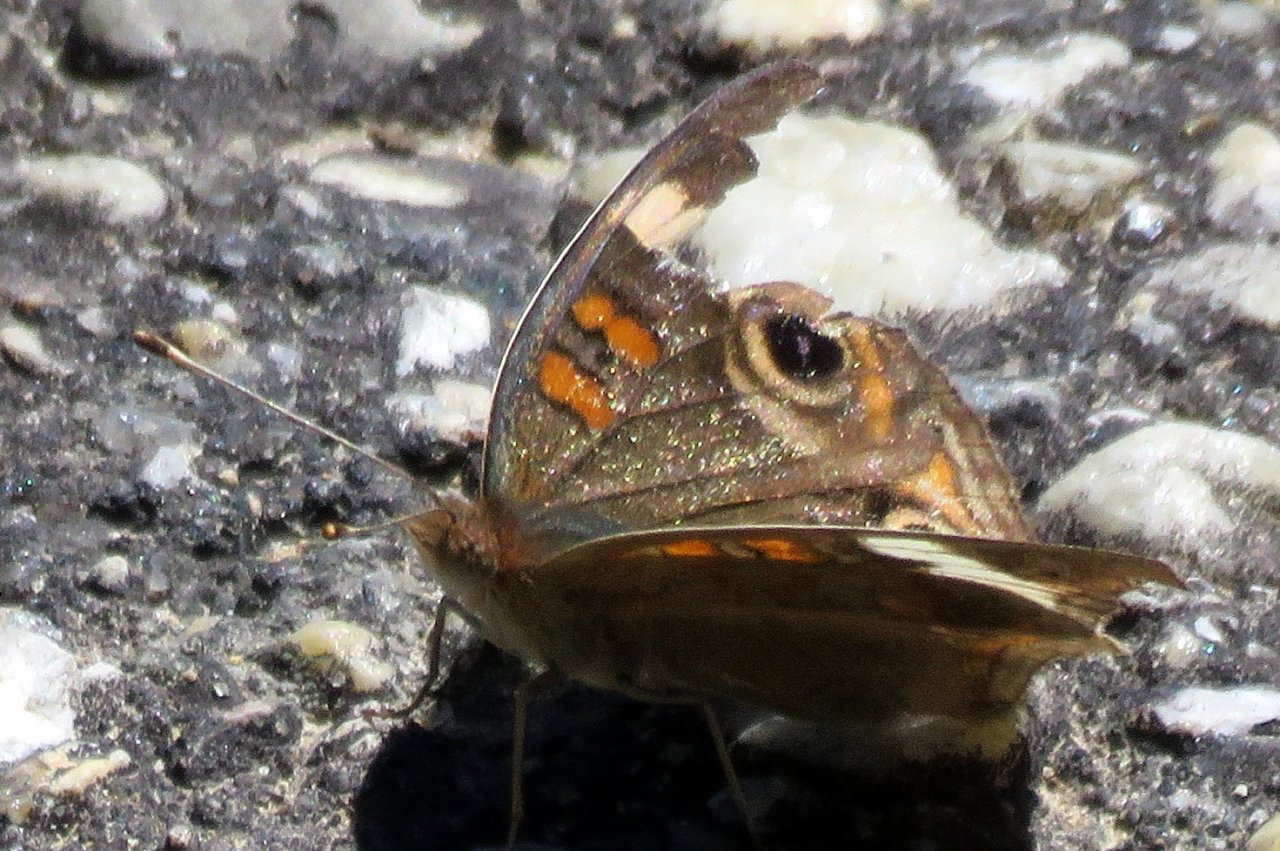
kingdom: Animalia
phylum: Arthropoda
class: Insecta
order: Lepidoptera
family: Nymphalidae
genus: Junonia
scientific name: Junonia coenia
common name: Common Buckeye
